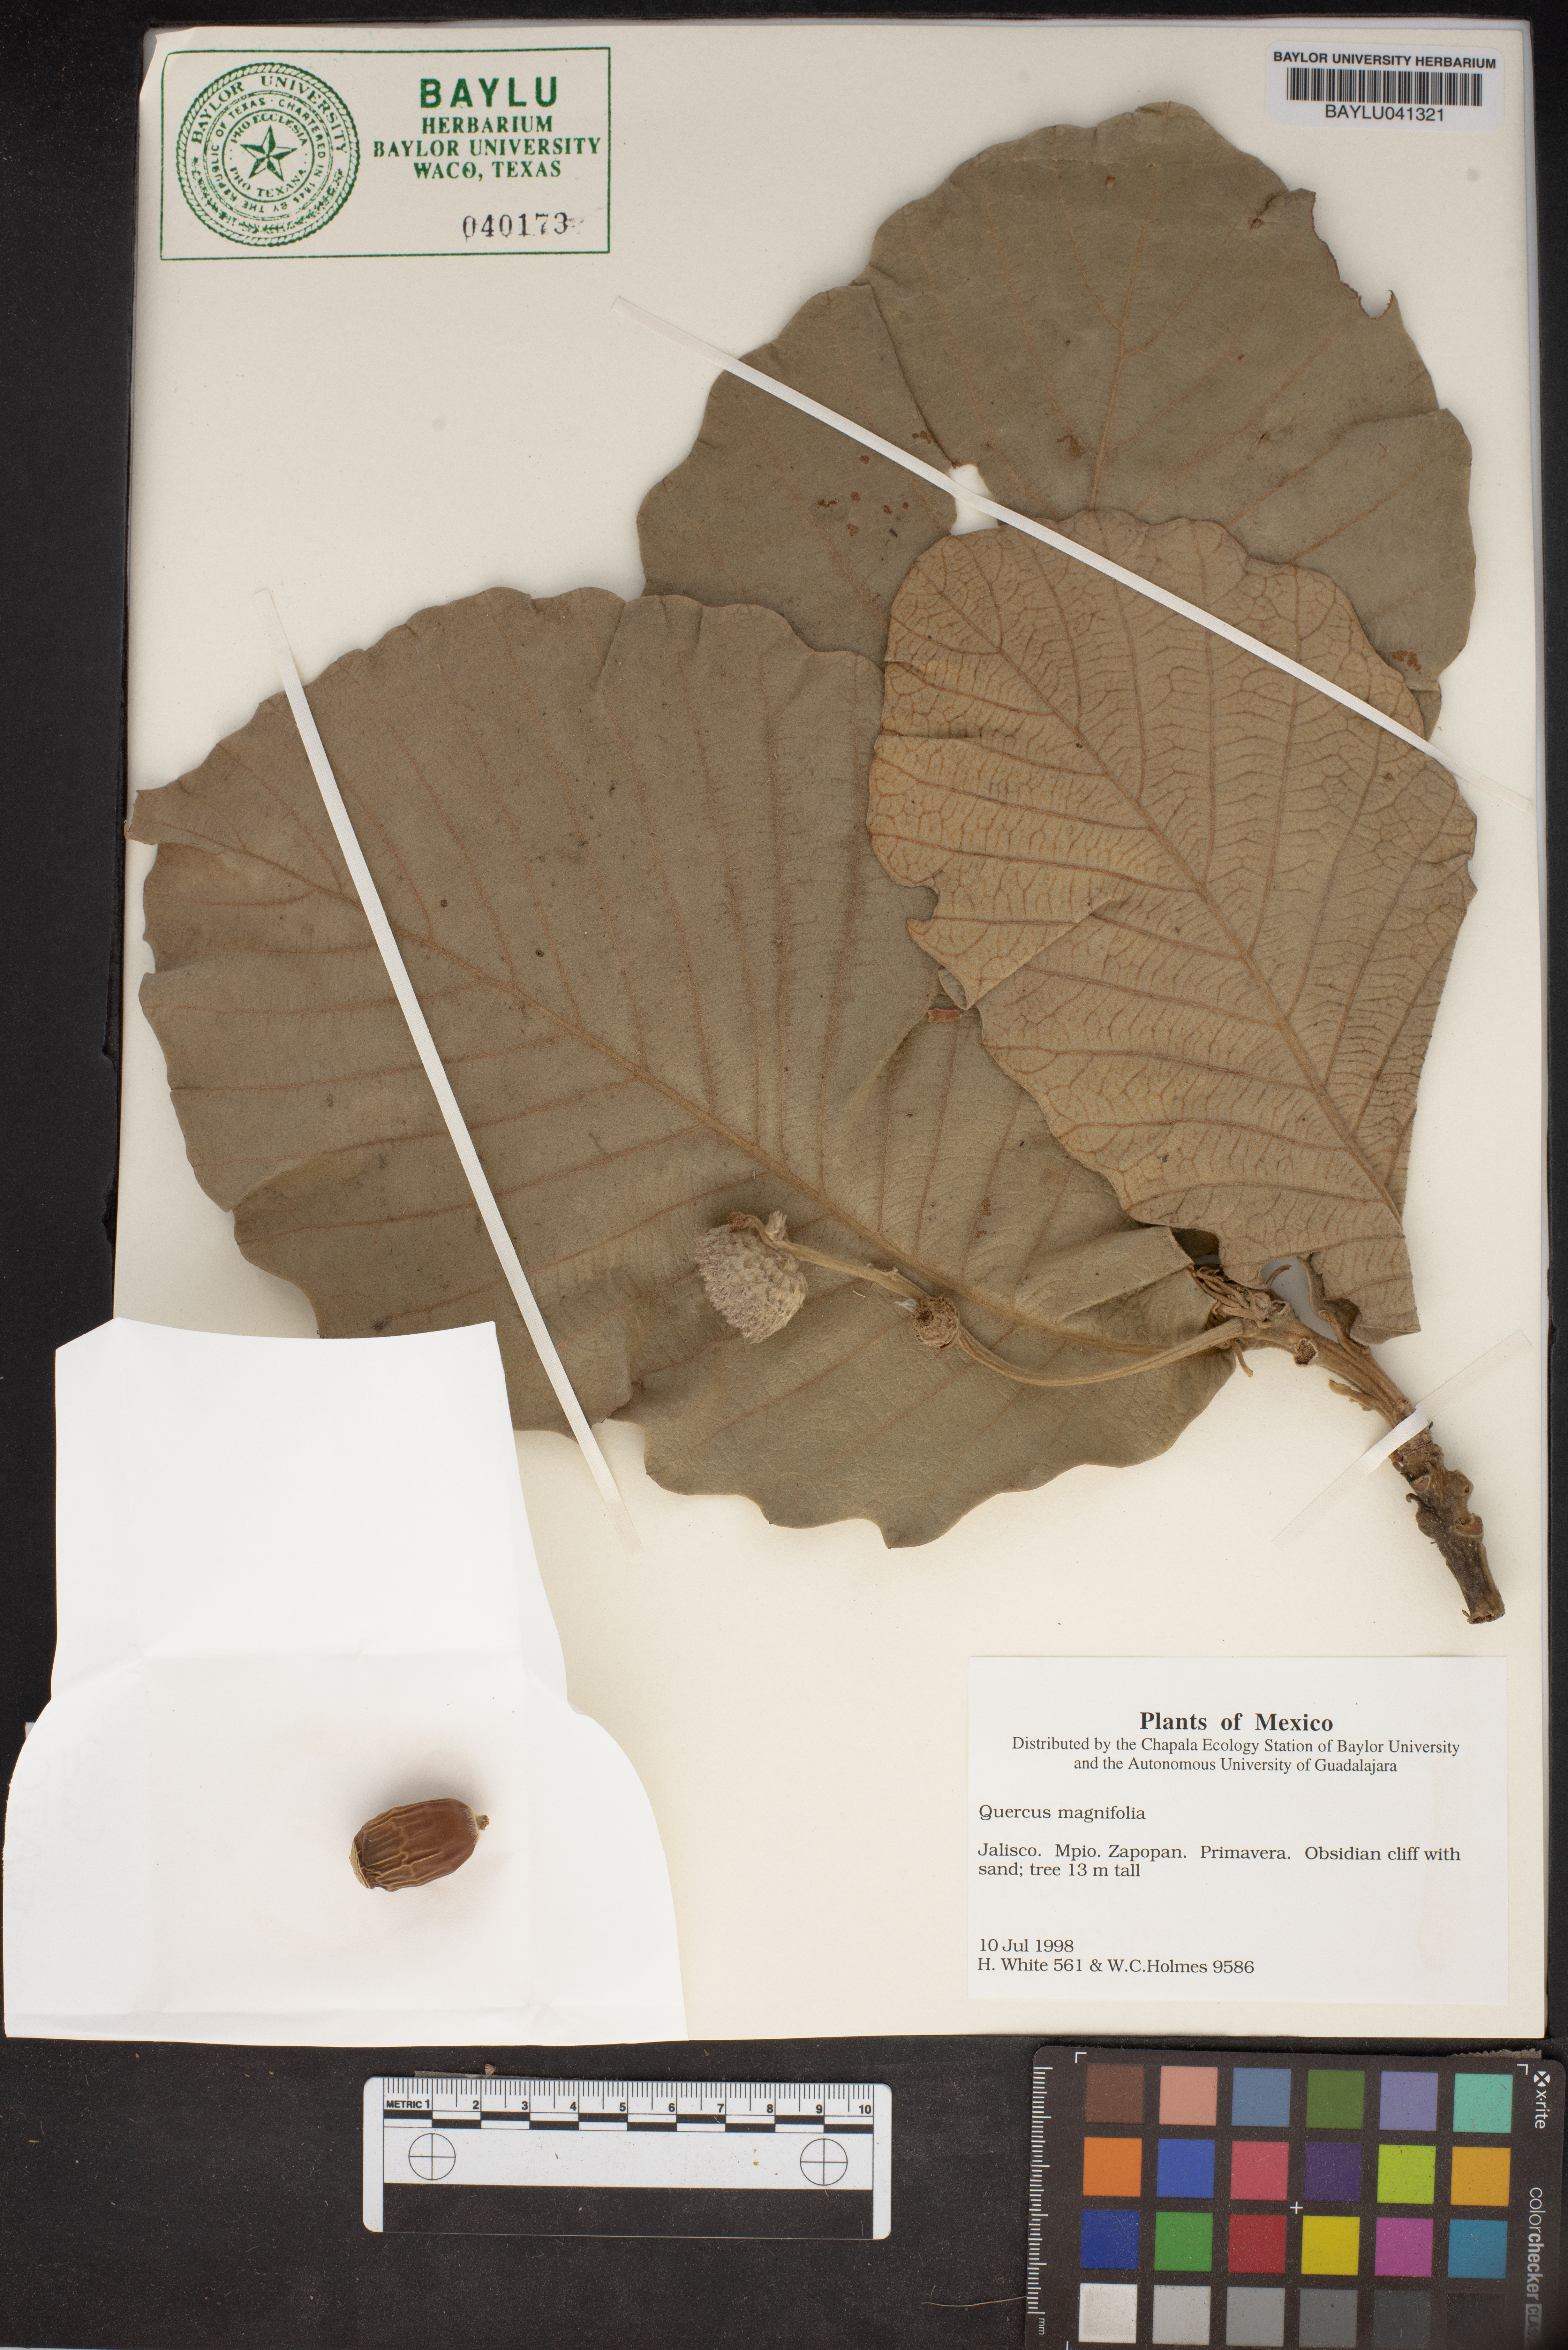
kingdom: Plantae
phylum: Tracheophyta
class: Magnoliopsida
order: Fagales
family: Fagaceae
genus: Quercus
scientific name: Quercus magnifolia
